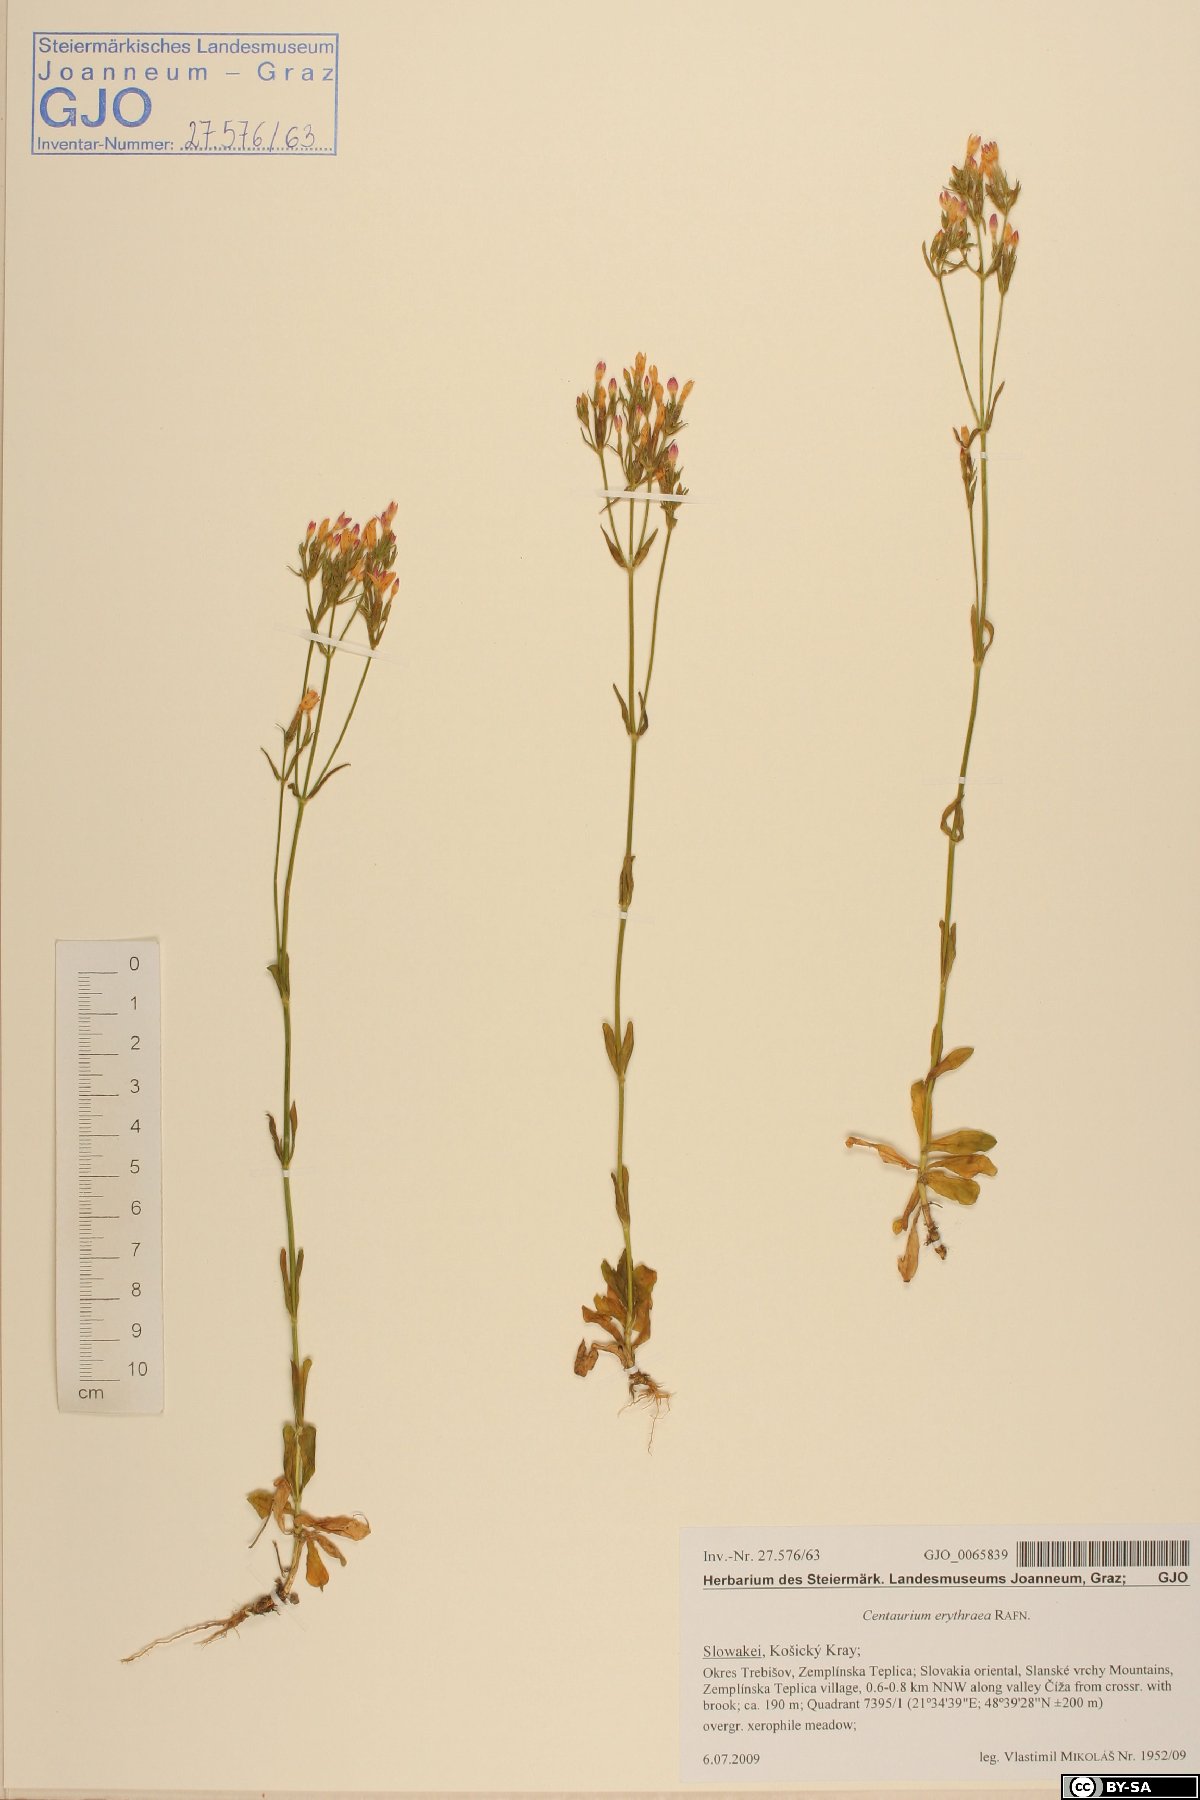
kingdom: Plantae
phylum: Tracheophyta
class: Magnoliopsida
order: Gentianales
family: Gentianaceae
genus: Centaurium
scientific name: Centaurium erythraea
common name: Common centaury
